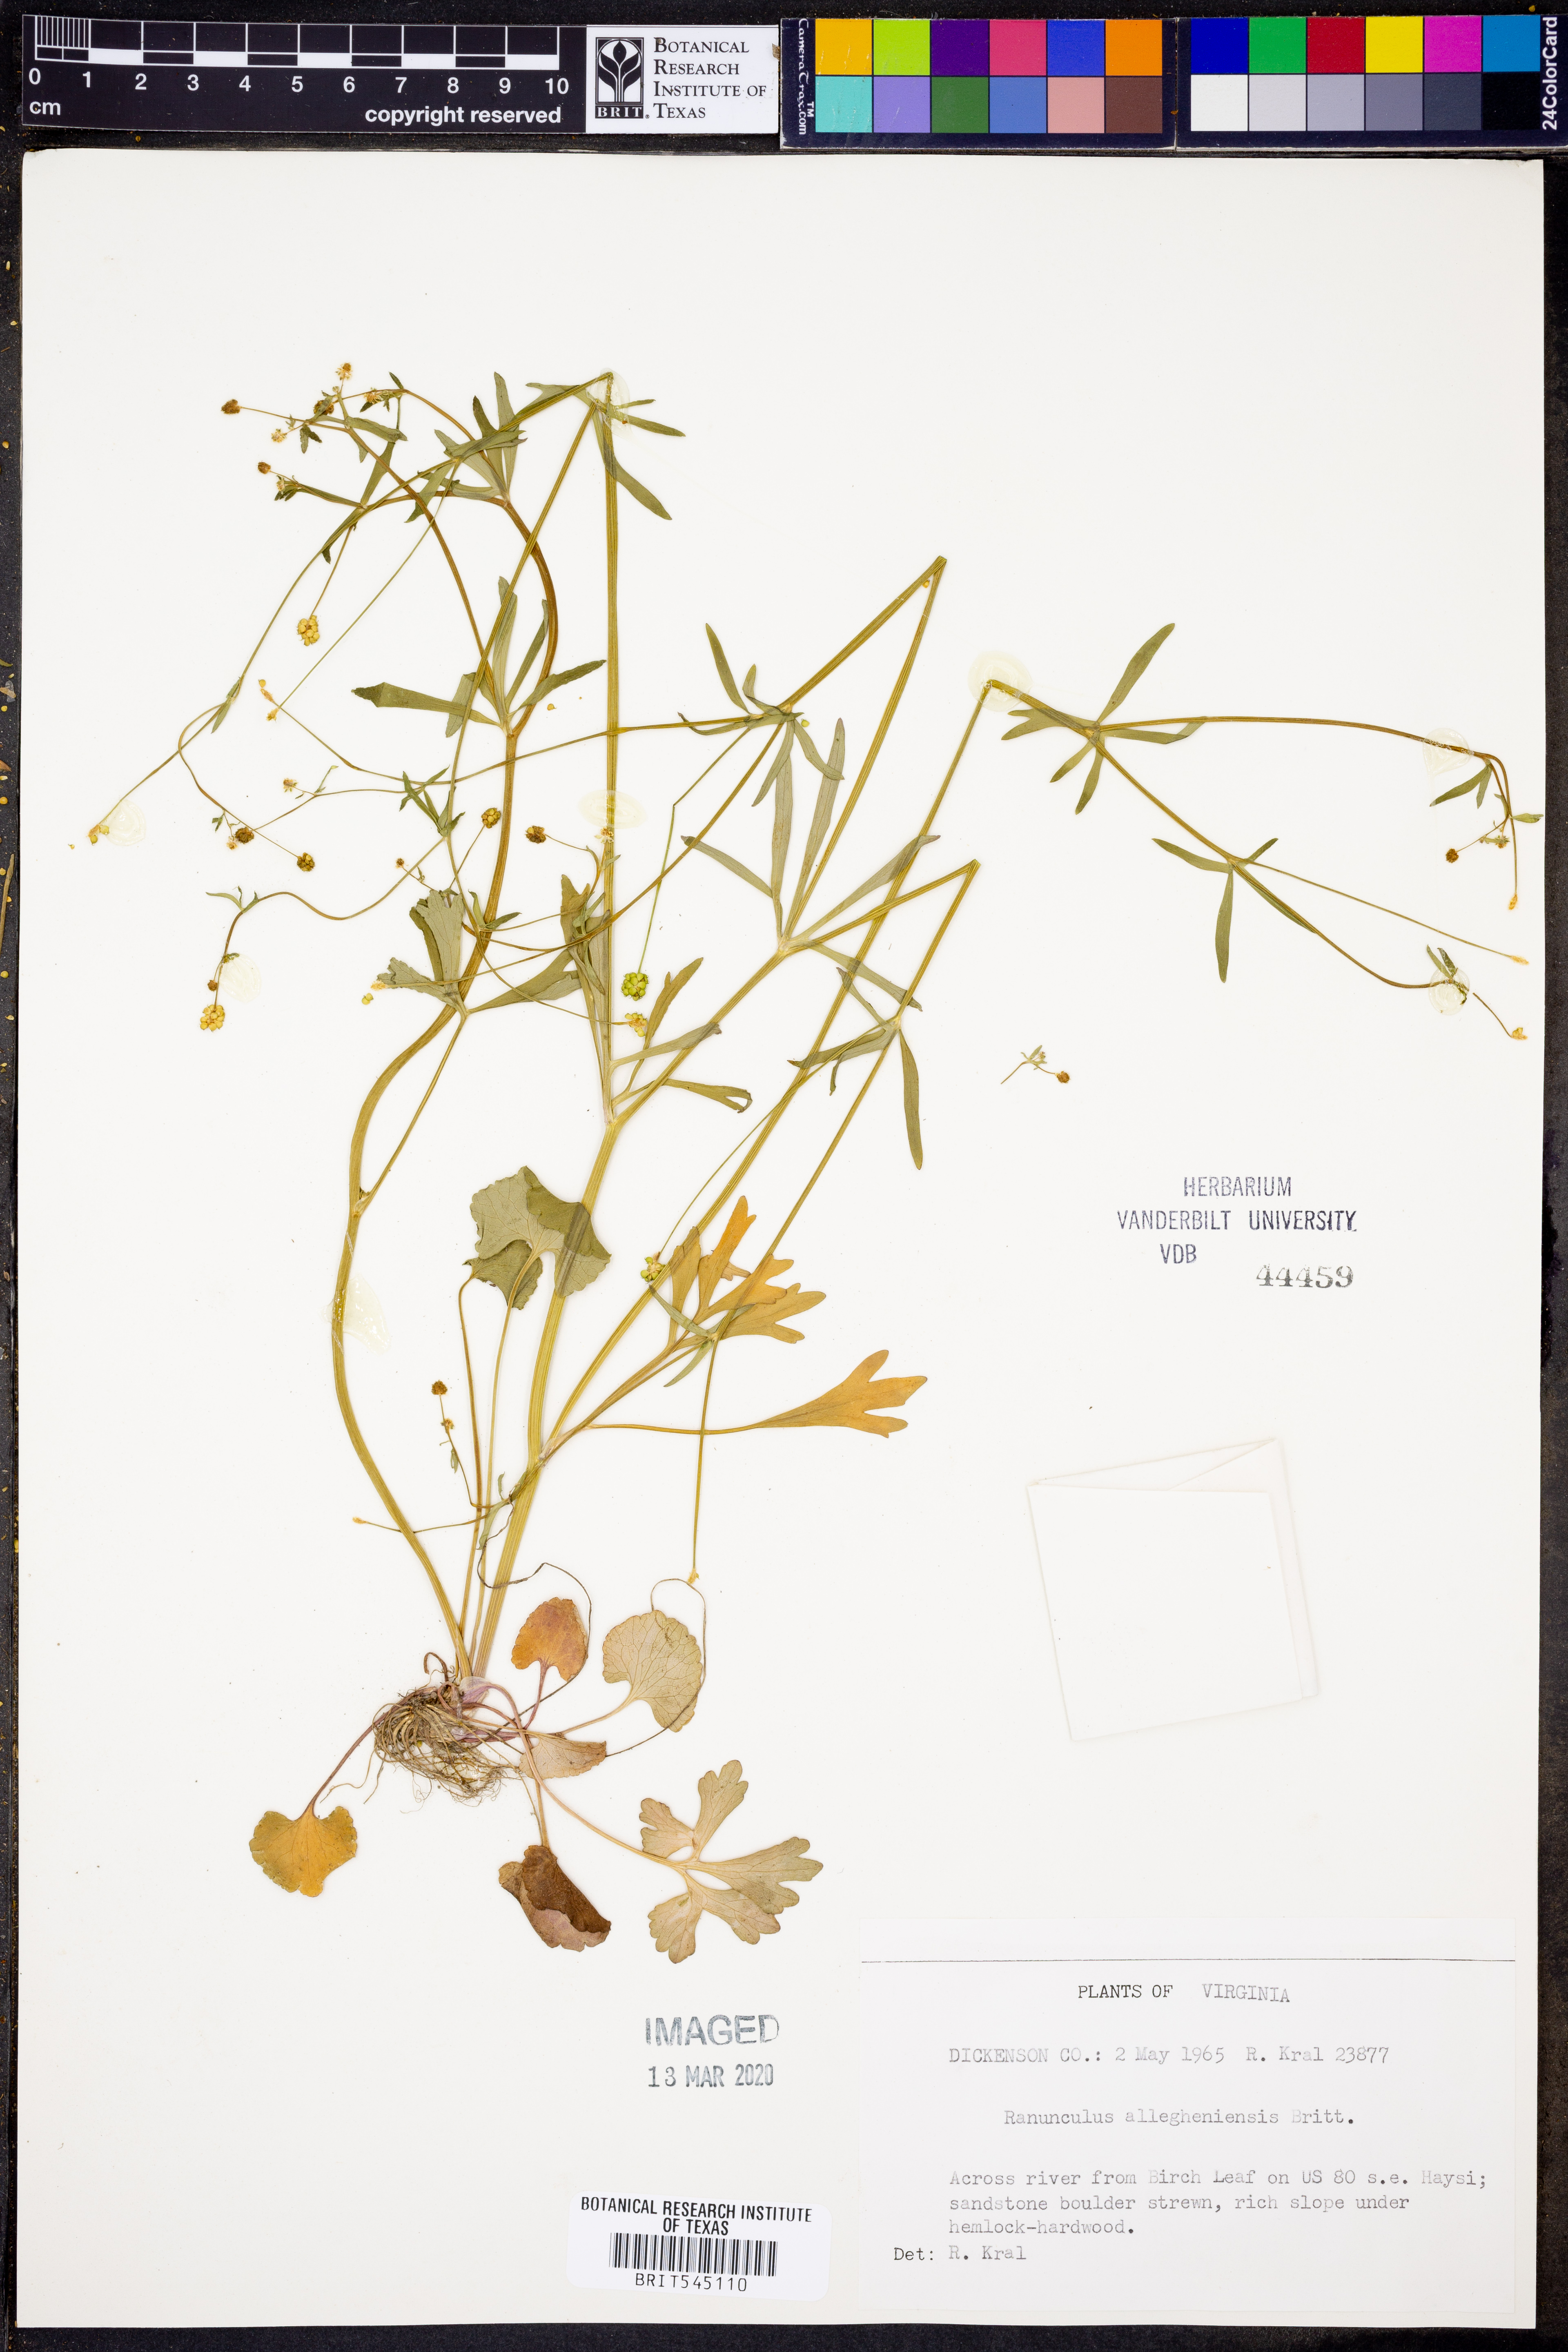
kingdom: Plantae
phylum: Tracheophyta
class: Magnoliopsida
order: Ranunculales
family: Ranunculaceae
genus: Ranunculus
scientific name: Ranunculus allegheniensis
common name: Allegheny mountain buttercup
